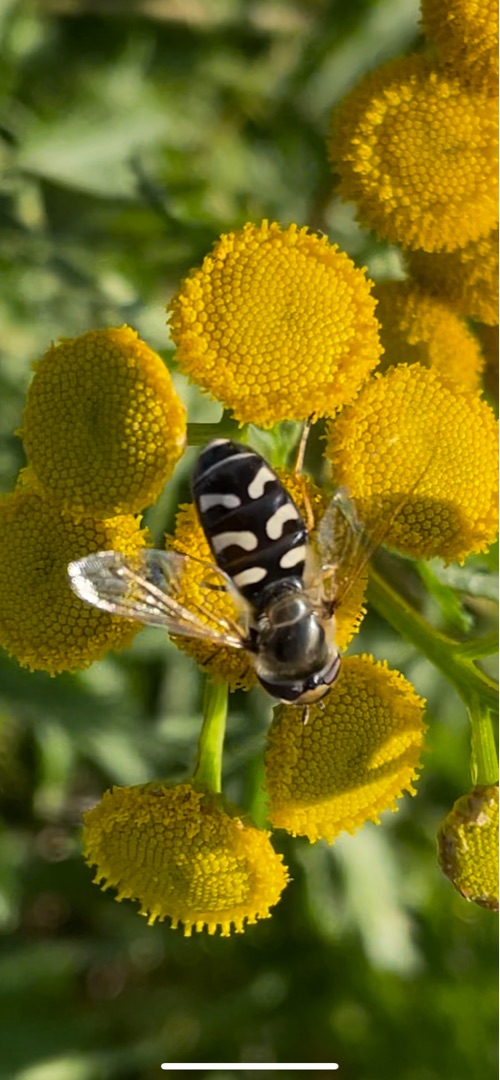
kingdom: Animalia
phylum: Arthropoda
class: Insecta
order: Diptera
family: Syrphidae
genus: Scaeva
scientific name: Scaeva pyrastri
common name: Hvidplettet agersvirreflue
